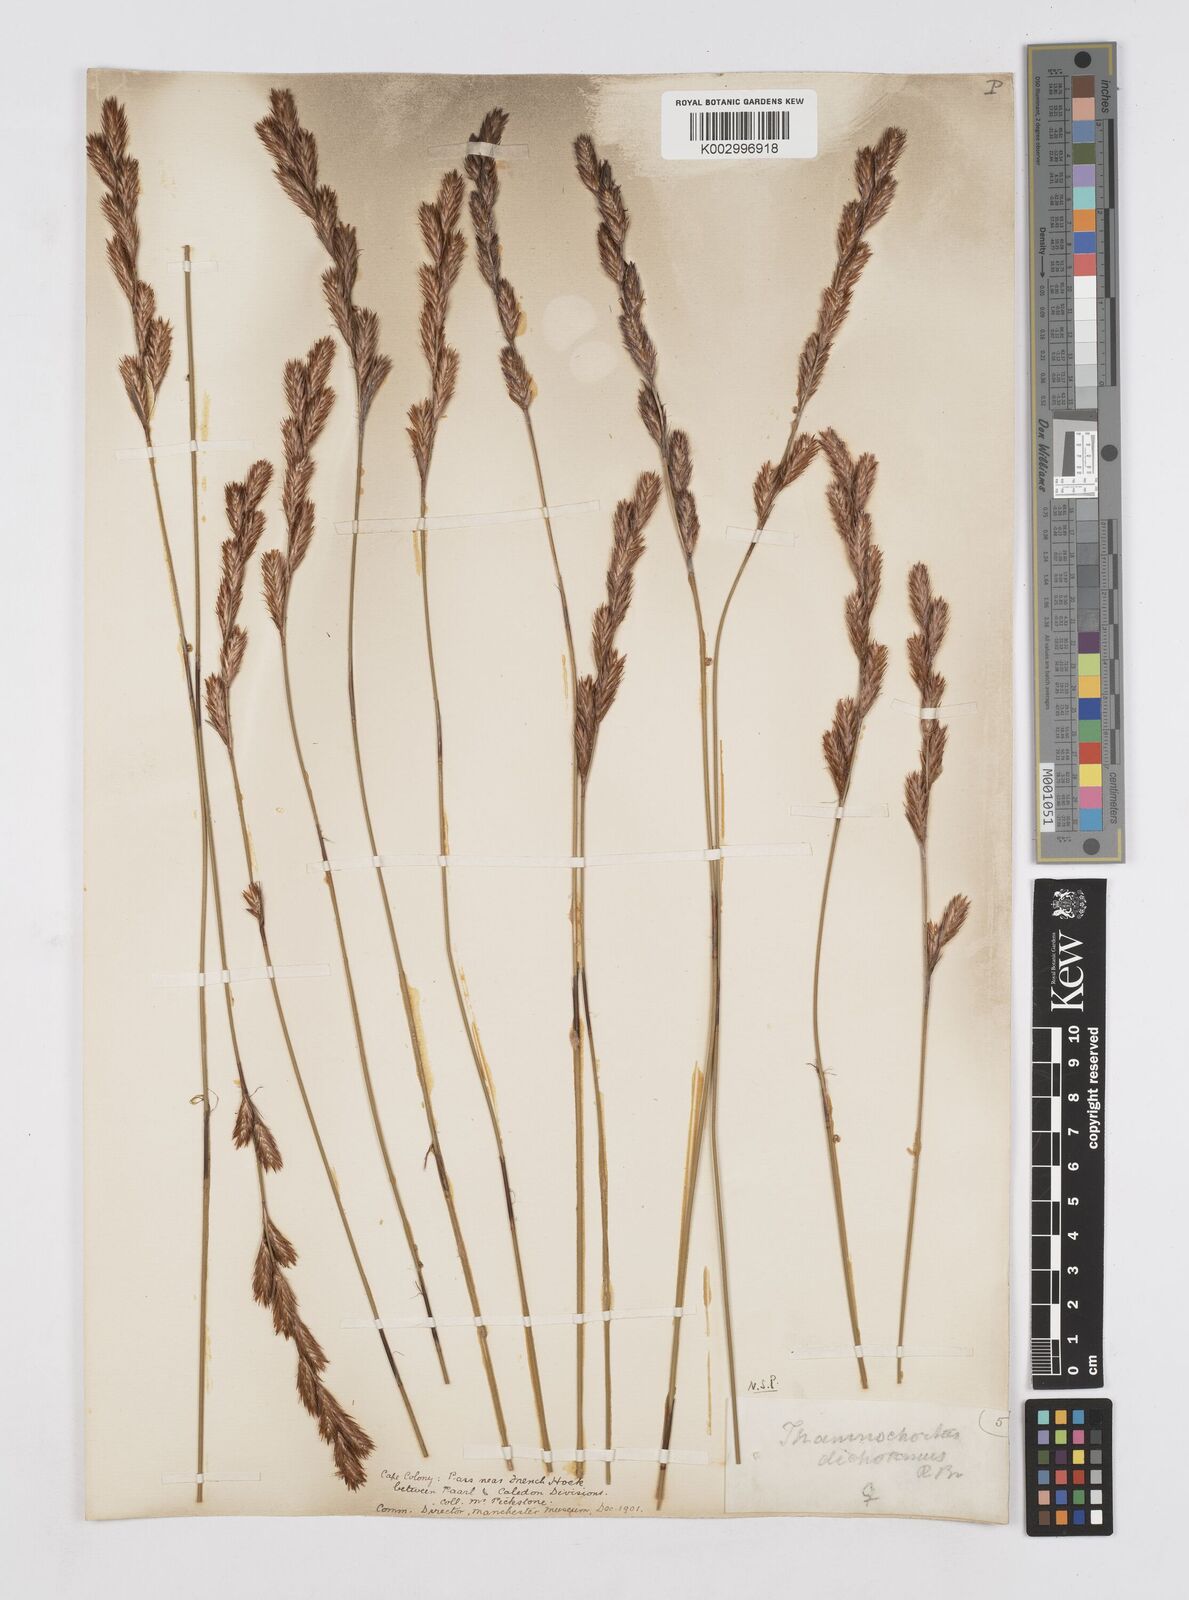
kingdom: Plantae
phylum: Tracheophyta
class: Liliopsida
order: Poales
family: Restionaceae
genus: Thamnochortus
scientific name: Thamnochortus lucens
